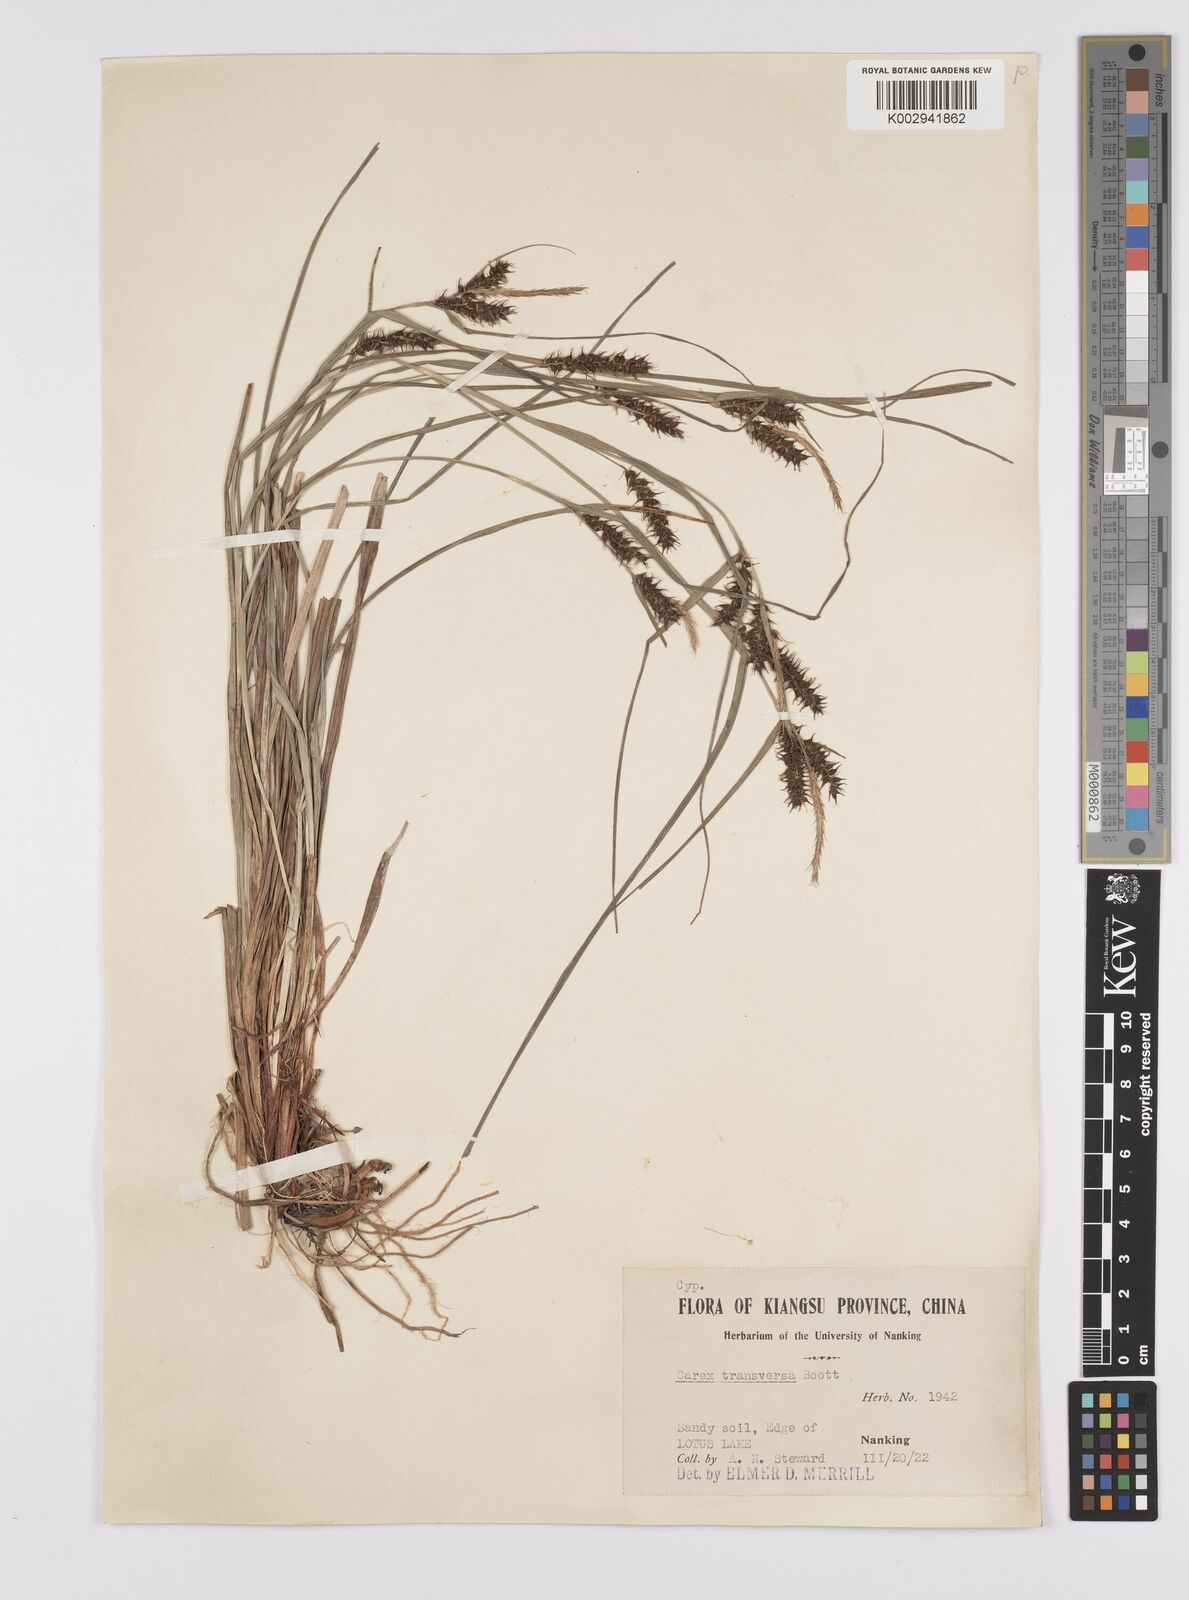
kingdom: Plantae
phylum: Tracheophyta
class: Liliopsida
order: Poales
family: Cyperaceae
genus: Carex
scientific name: Carex brownii
